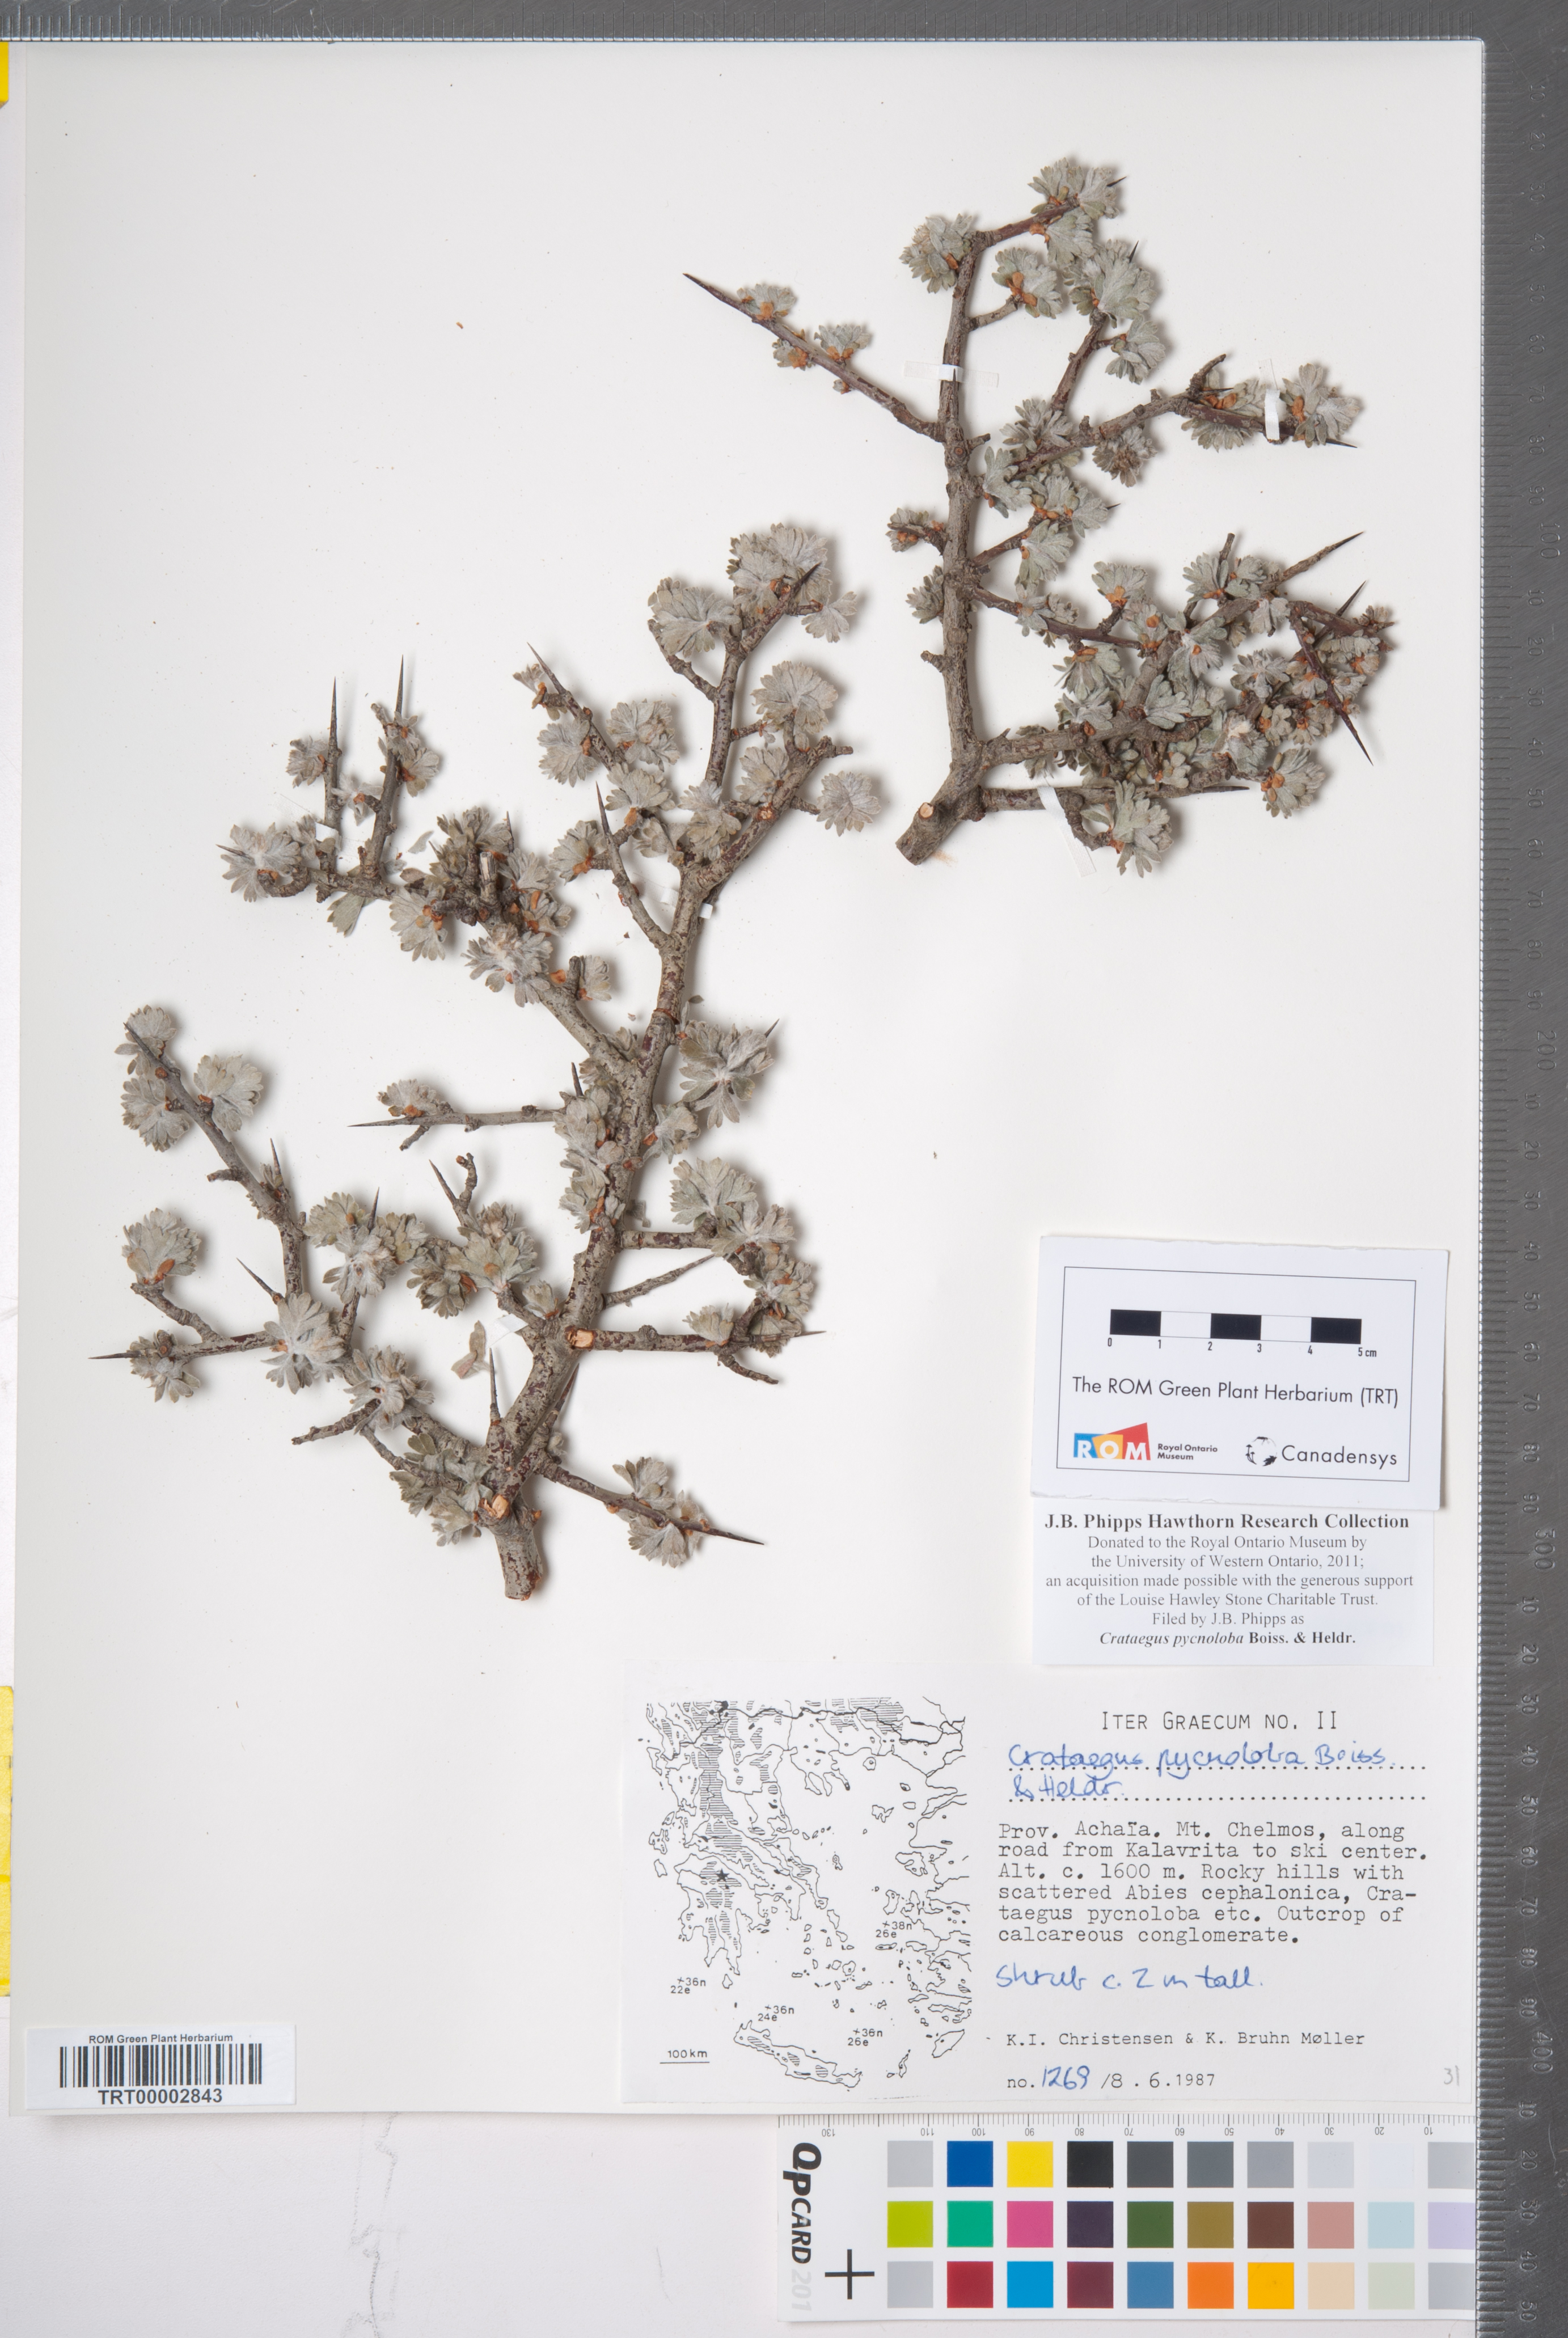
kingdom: Plantae
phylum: Tracheophyta
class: Magnoliopsida
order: Rosales
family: Rosaceae
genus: Crataegus
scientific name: Crataegus pycnoloba
